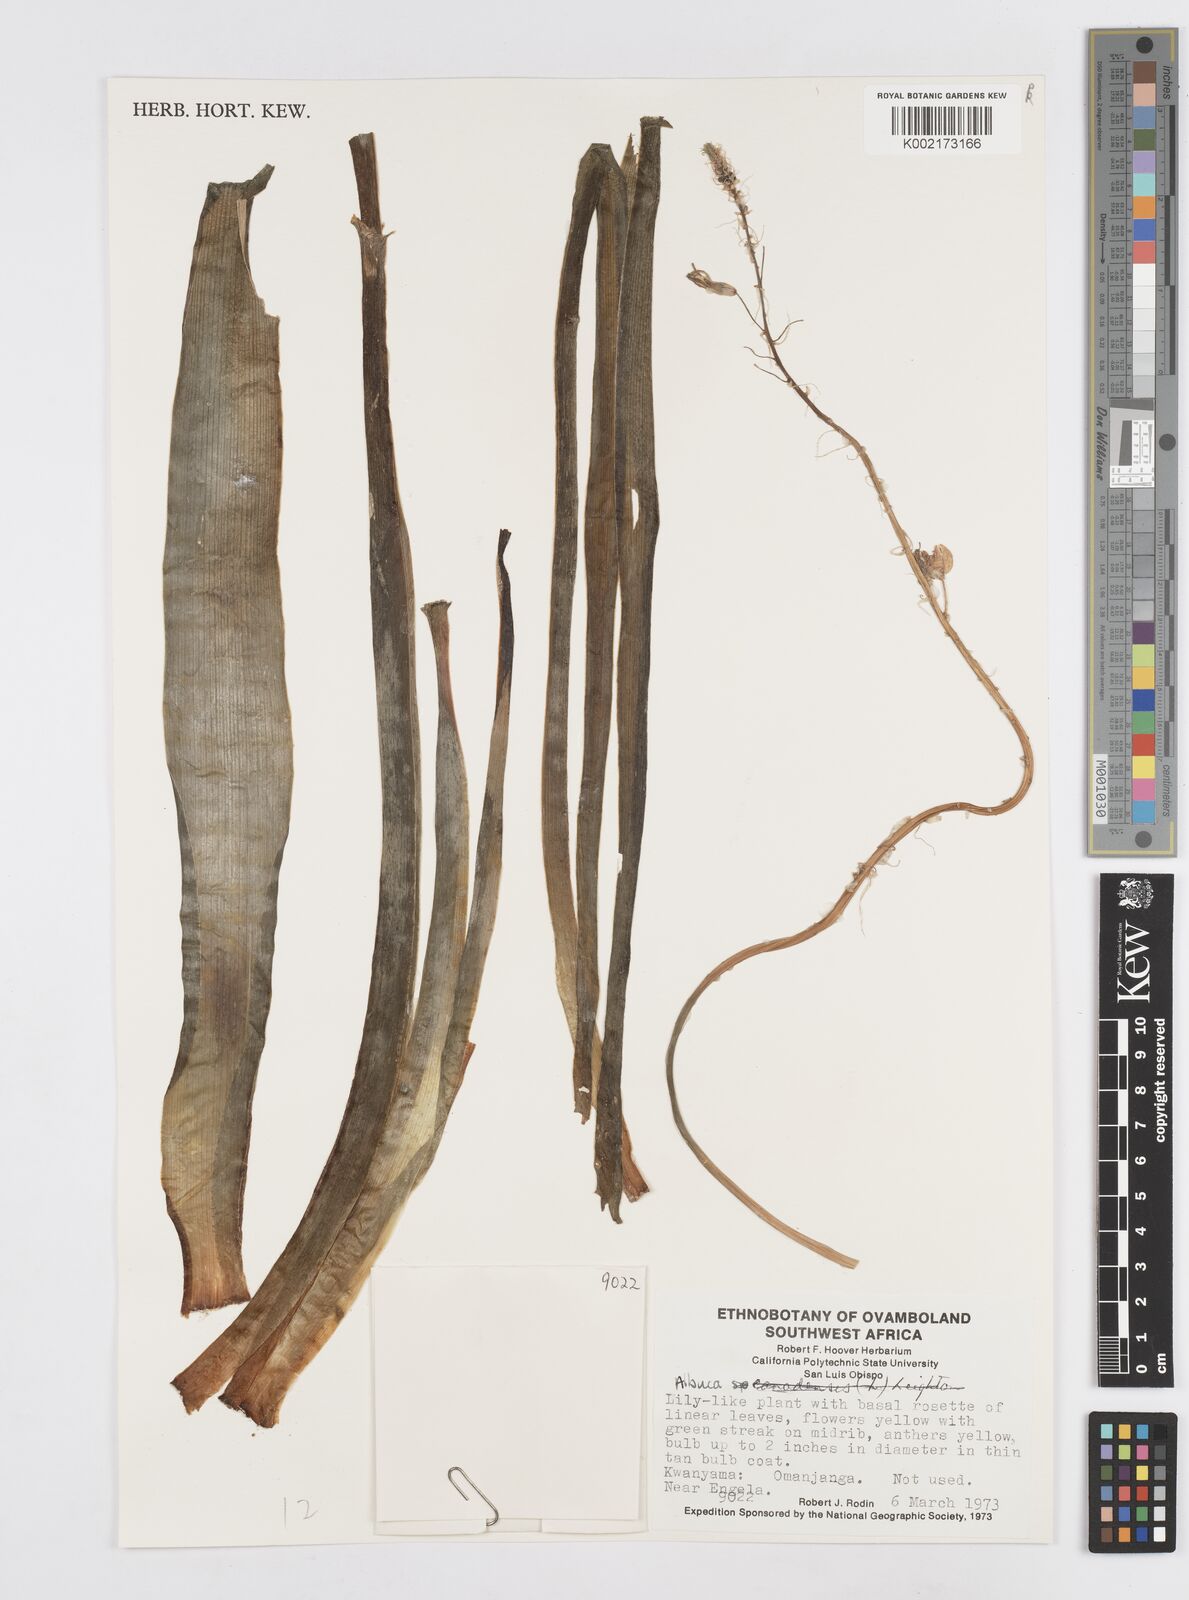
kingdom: Plantae
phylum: Tracheophyta
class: Liliopsida
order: Asparagales
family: Asparagaceae
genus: Albuca
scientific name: Albuca
